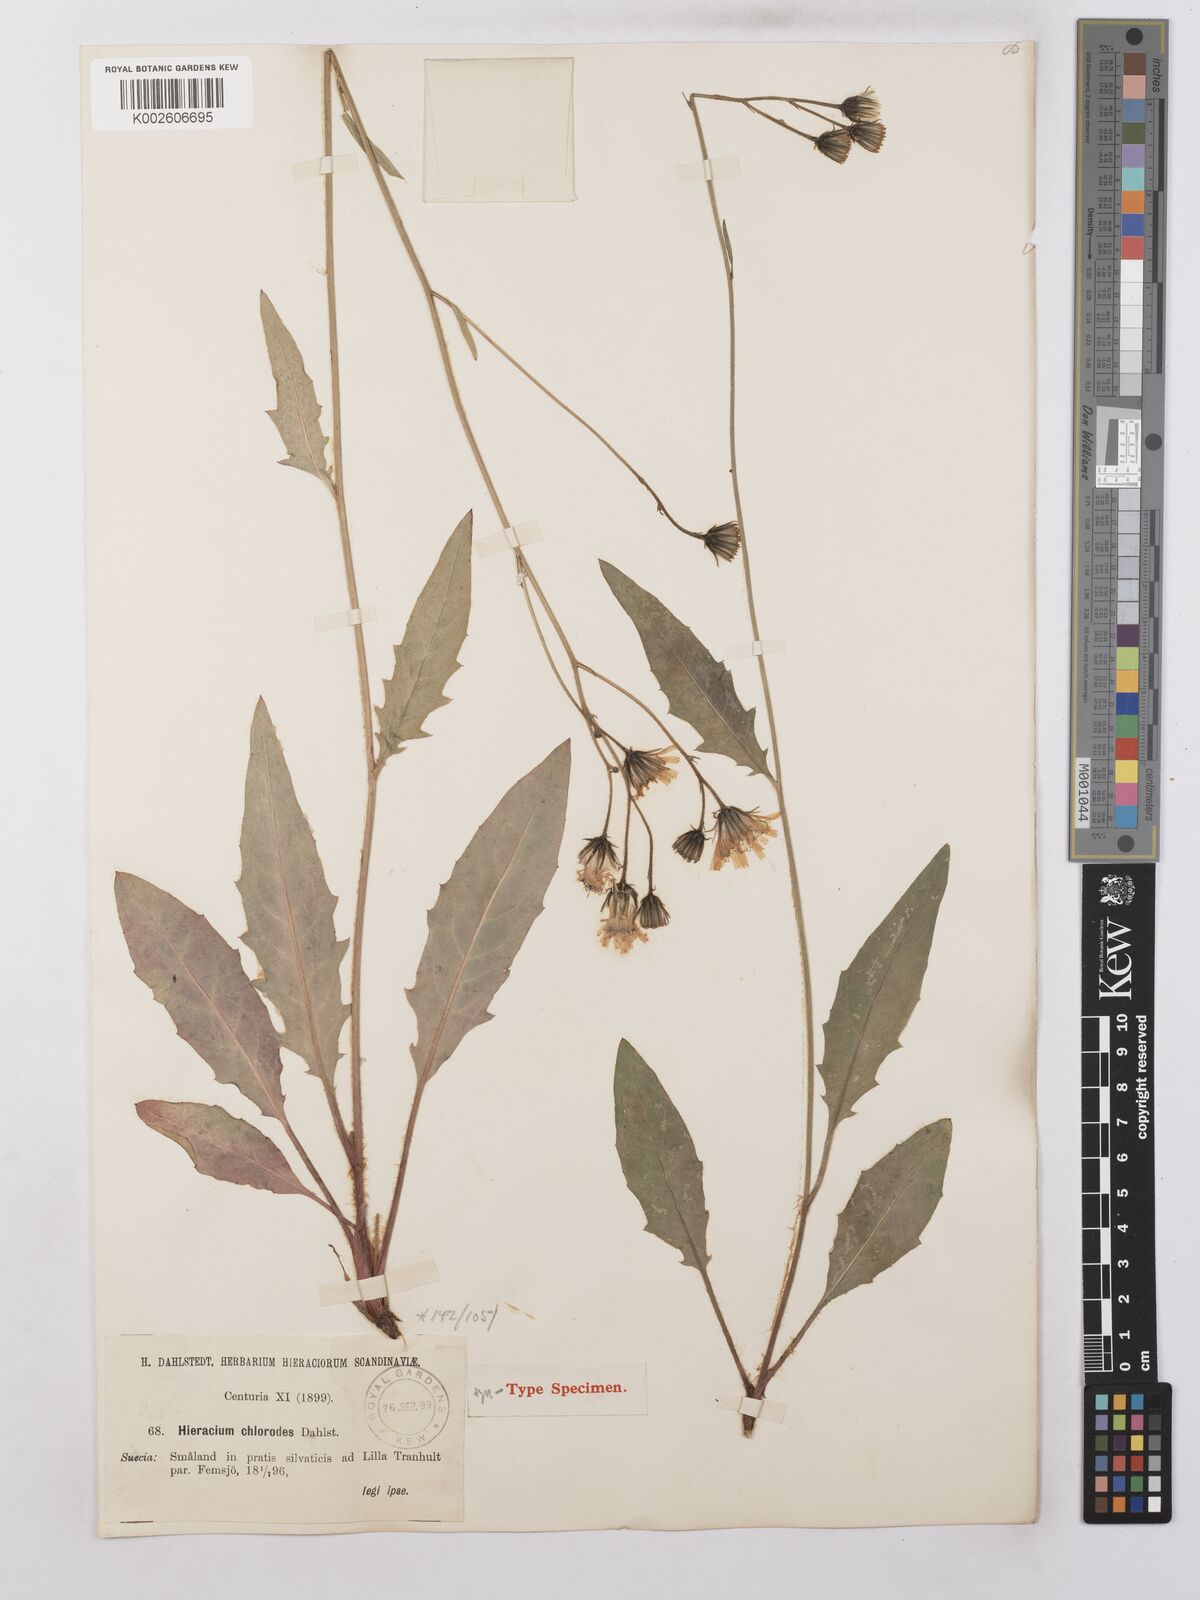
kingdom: Plantae
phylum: Tracheophyta
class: Magnoliopsida
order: Asterales
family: Asteraceae
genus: Hieracium
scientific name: Hieracium lachenalii
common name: Common hawkweed
